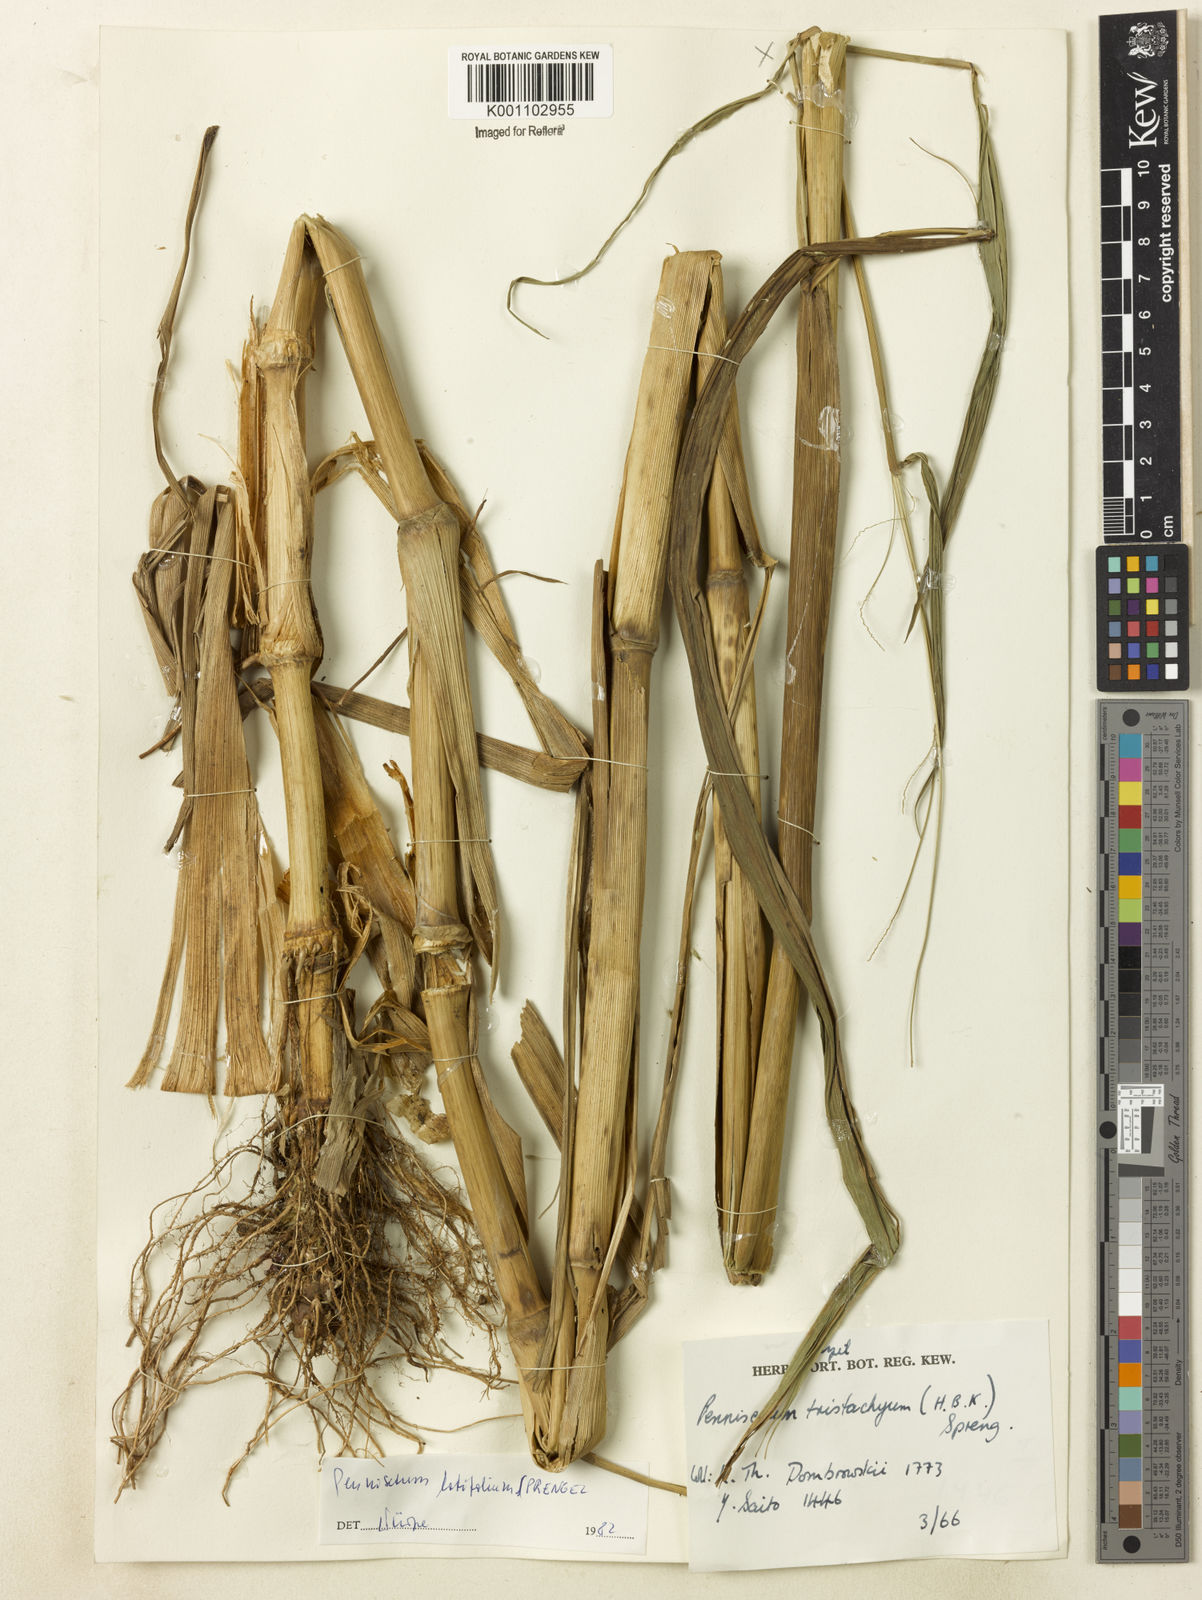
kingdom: Plantae
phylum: Tracheophyta
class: Liliopsida
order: Poales
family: Poaceae
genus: Cenchrus
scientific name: Cenchrus latifolius
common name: Sandbur
